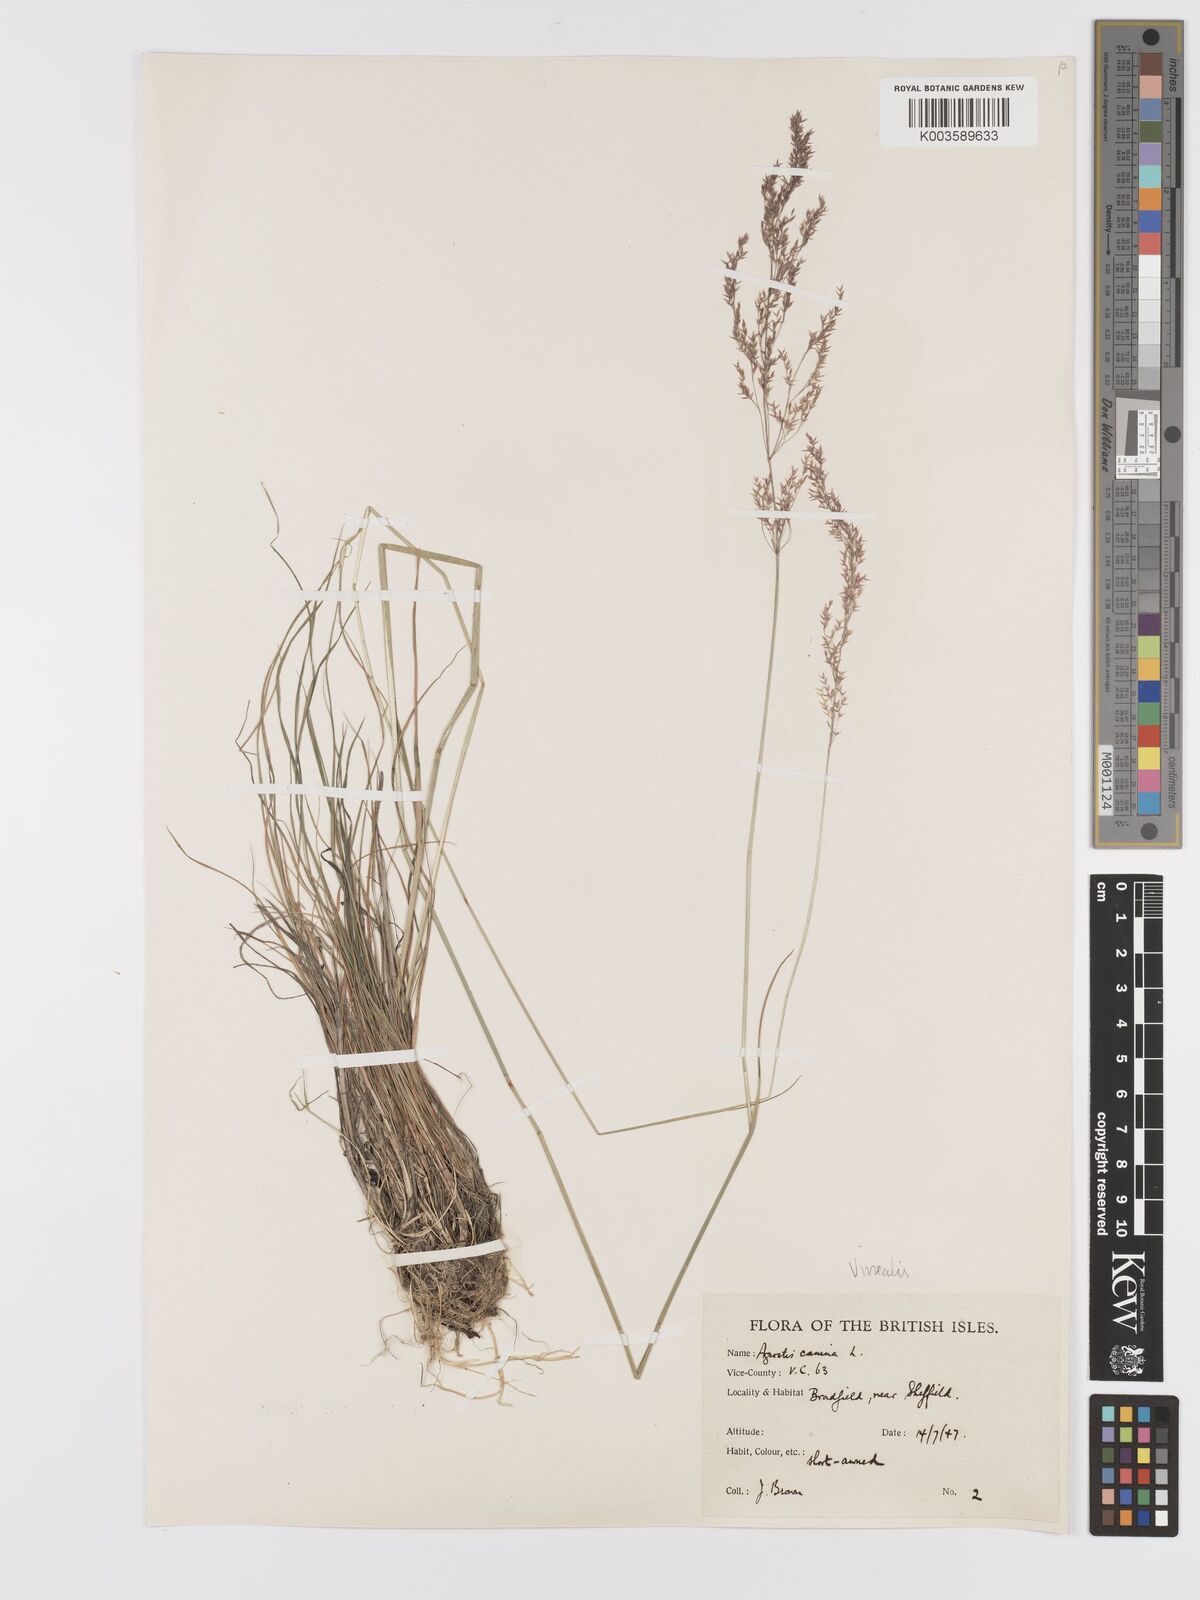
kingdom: Plantae
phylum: Tracheophyta
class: Liliopsida
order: Poales
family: Poaceae
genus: Agrostis
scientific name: Agrostis
